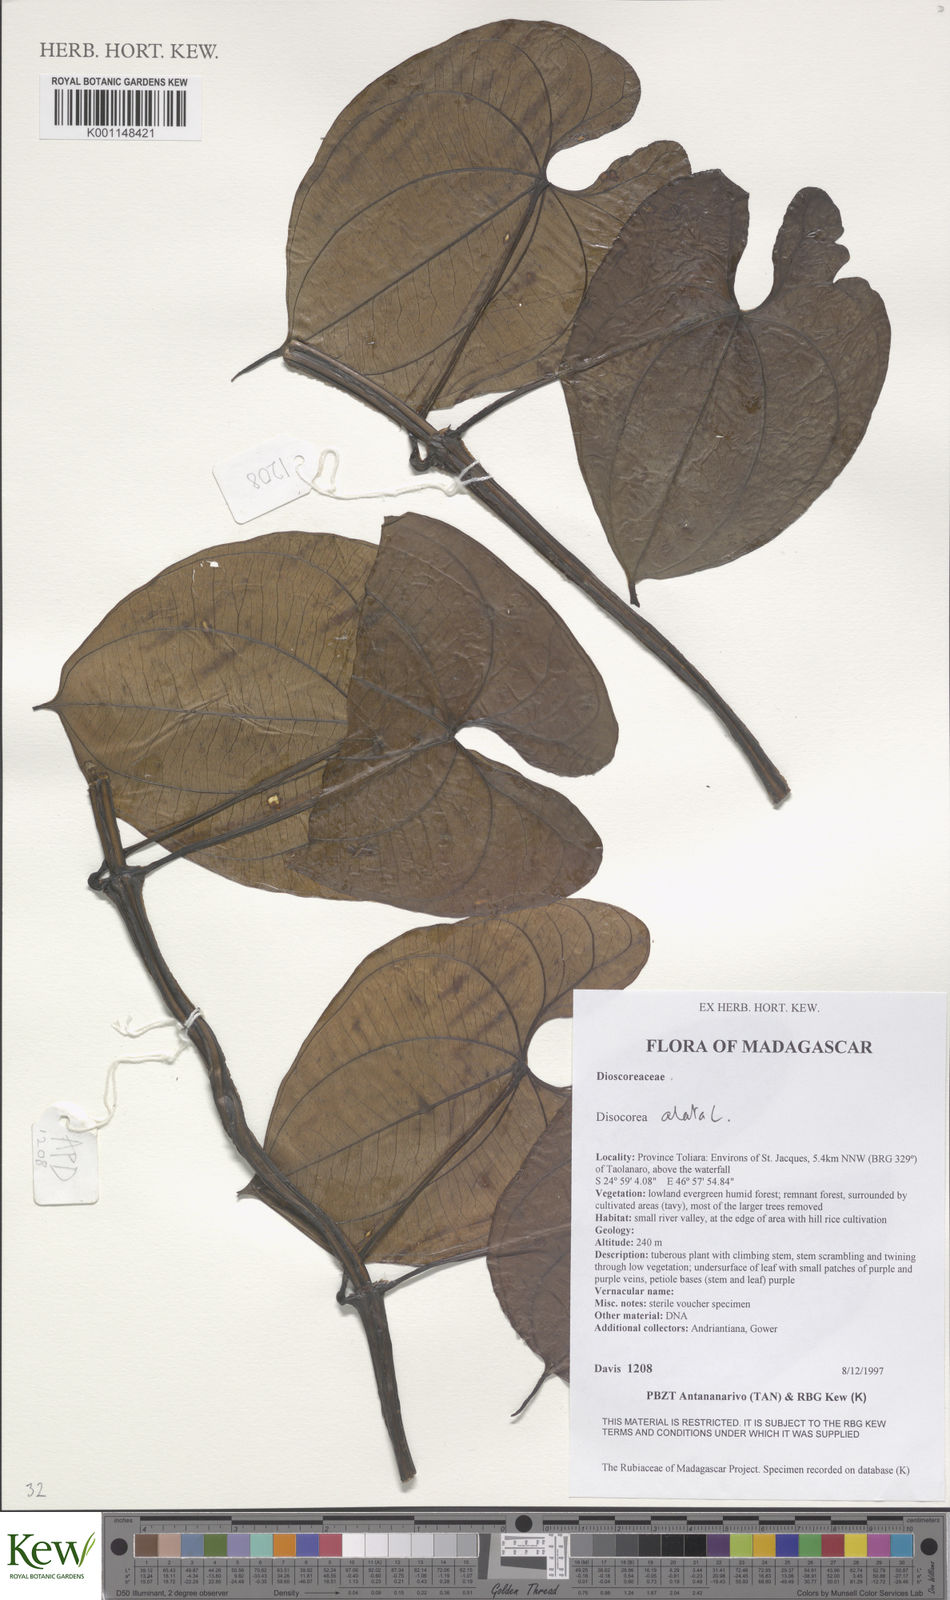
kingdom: Plantae
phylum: Tracheophyta
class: Liliopsida
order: Dioscoreales
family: Dioscoreaceae
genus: Dioscorea
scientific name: Dioscorea alata
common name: Water yam
